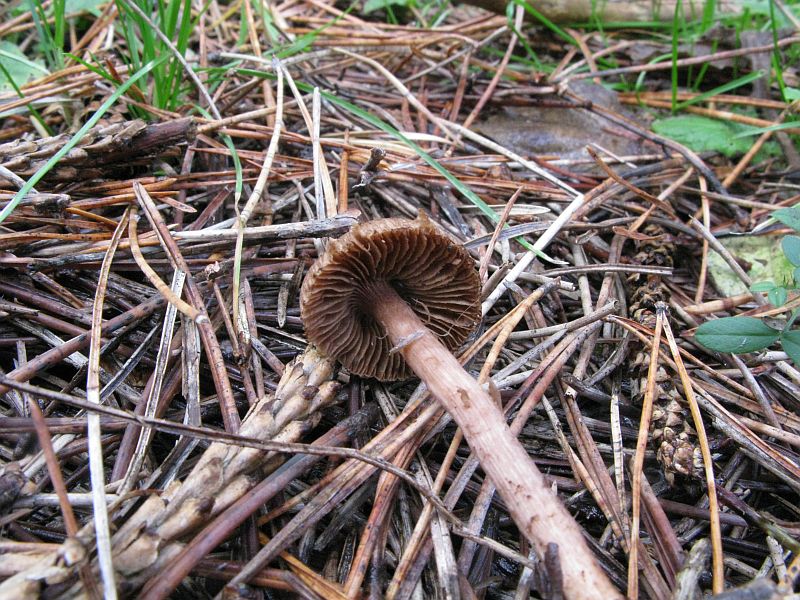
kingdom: Fungi
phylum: Basidiomycota
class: Agaricomycetes
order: Agaricales
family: Inocybaceae
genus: Inocybe
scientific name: Inocybe cincinnata
